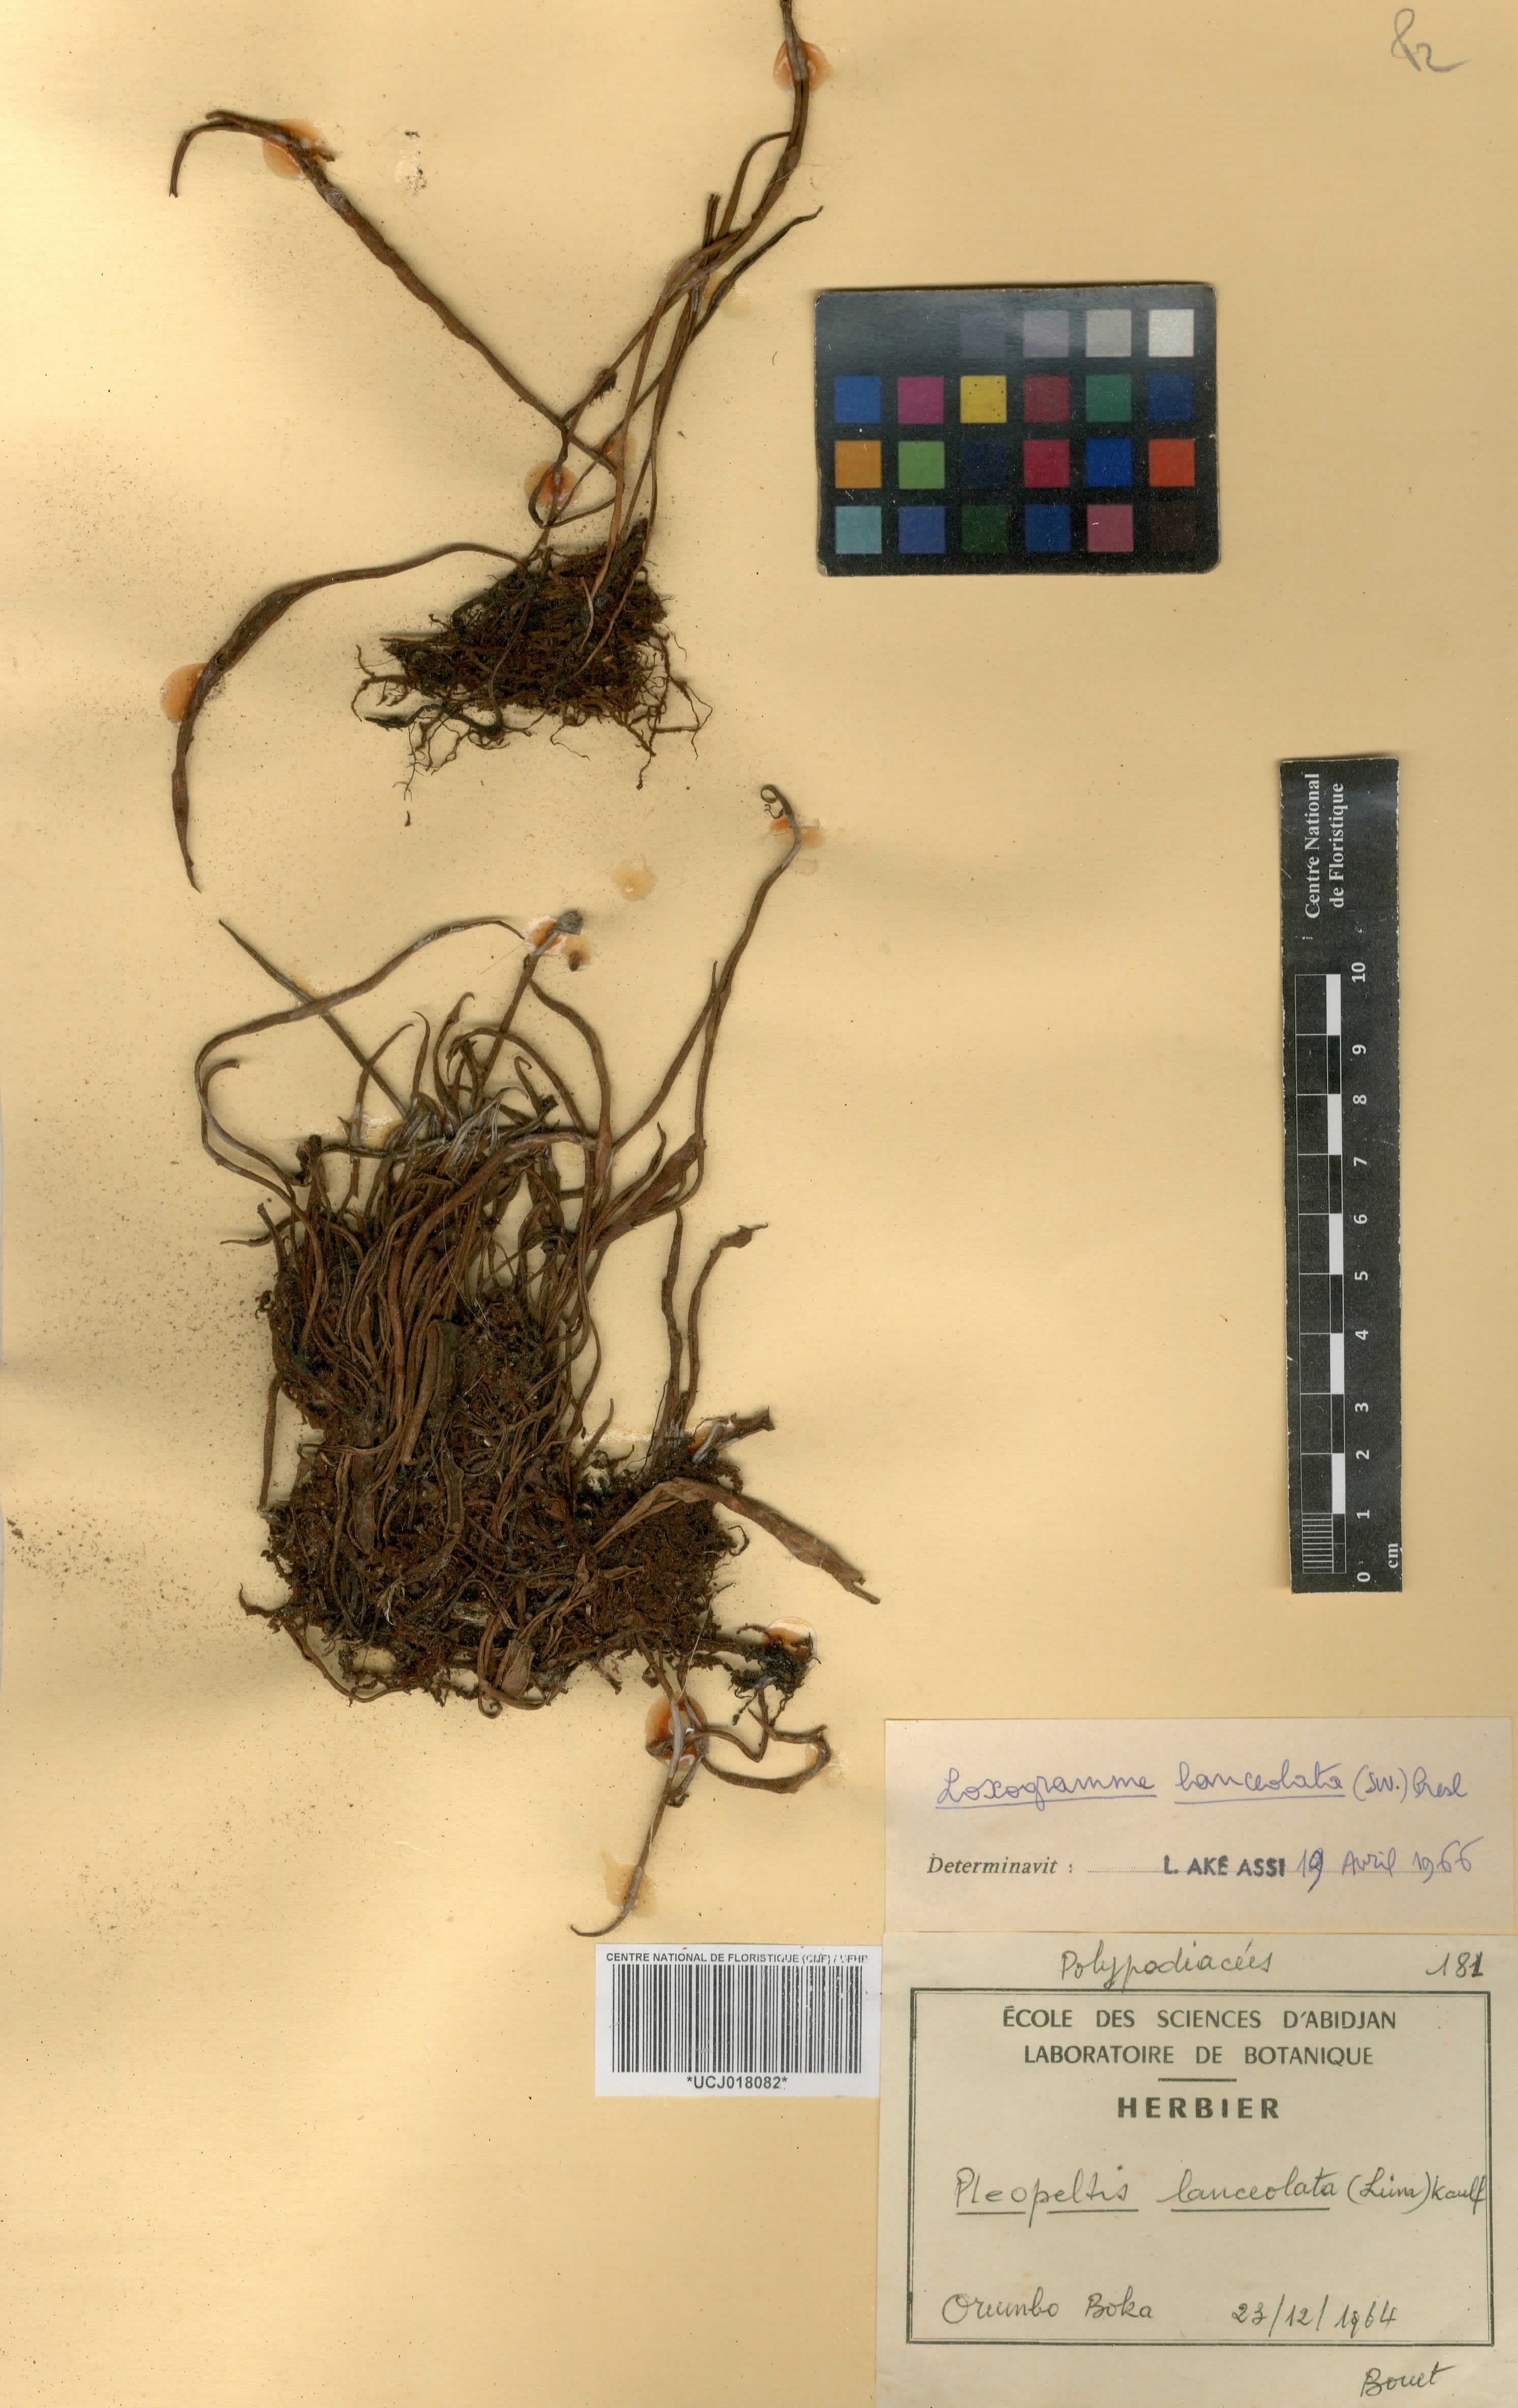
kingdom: Plantae
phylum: Tracheophyta
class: Polypodiopsida
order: Polypodiales
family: Polypodiaceae
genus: Loxogramme
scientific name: Loxogramme
